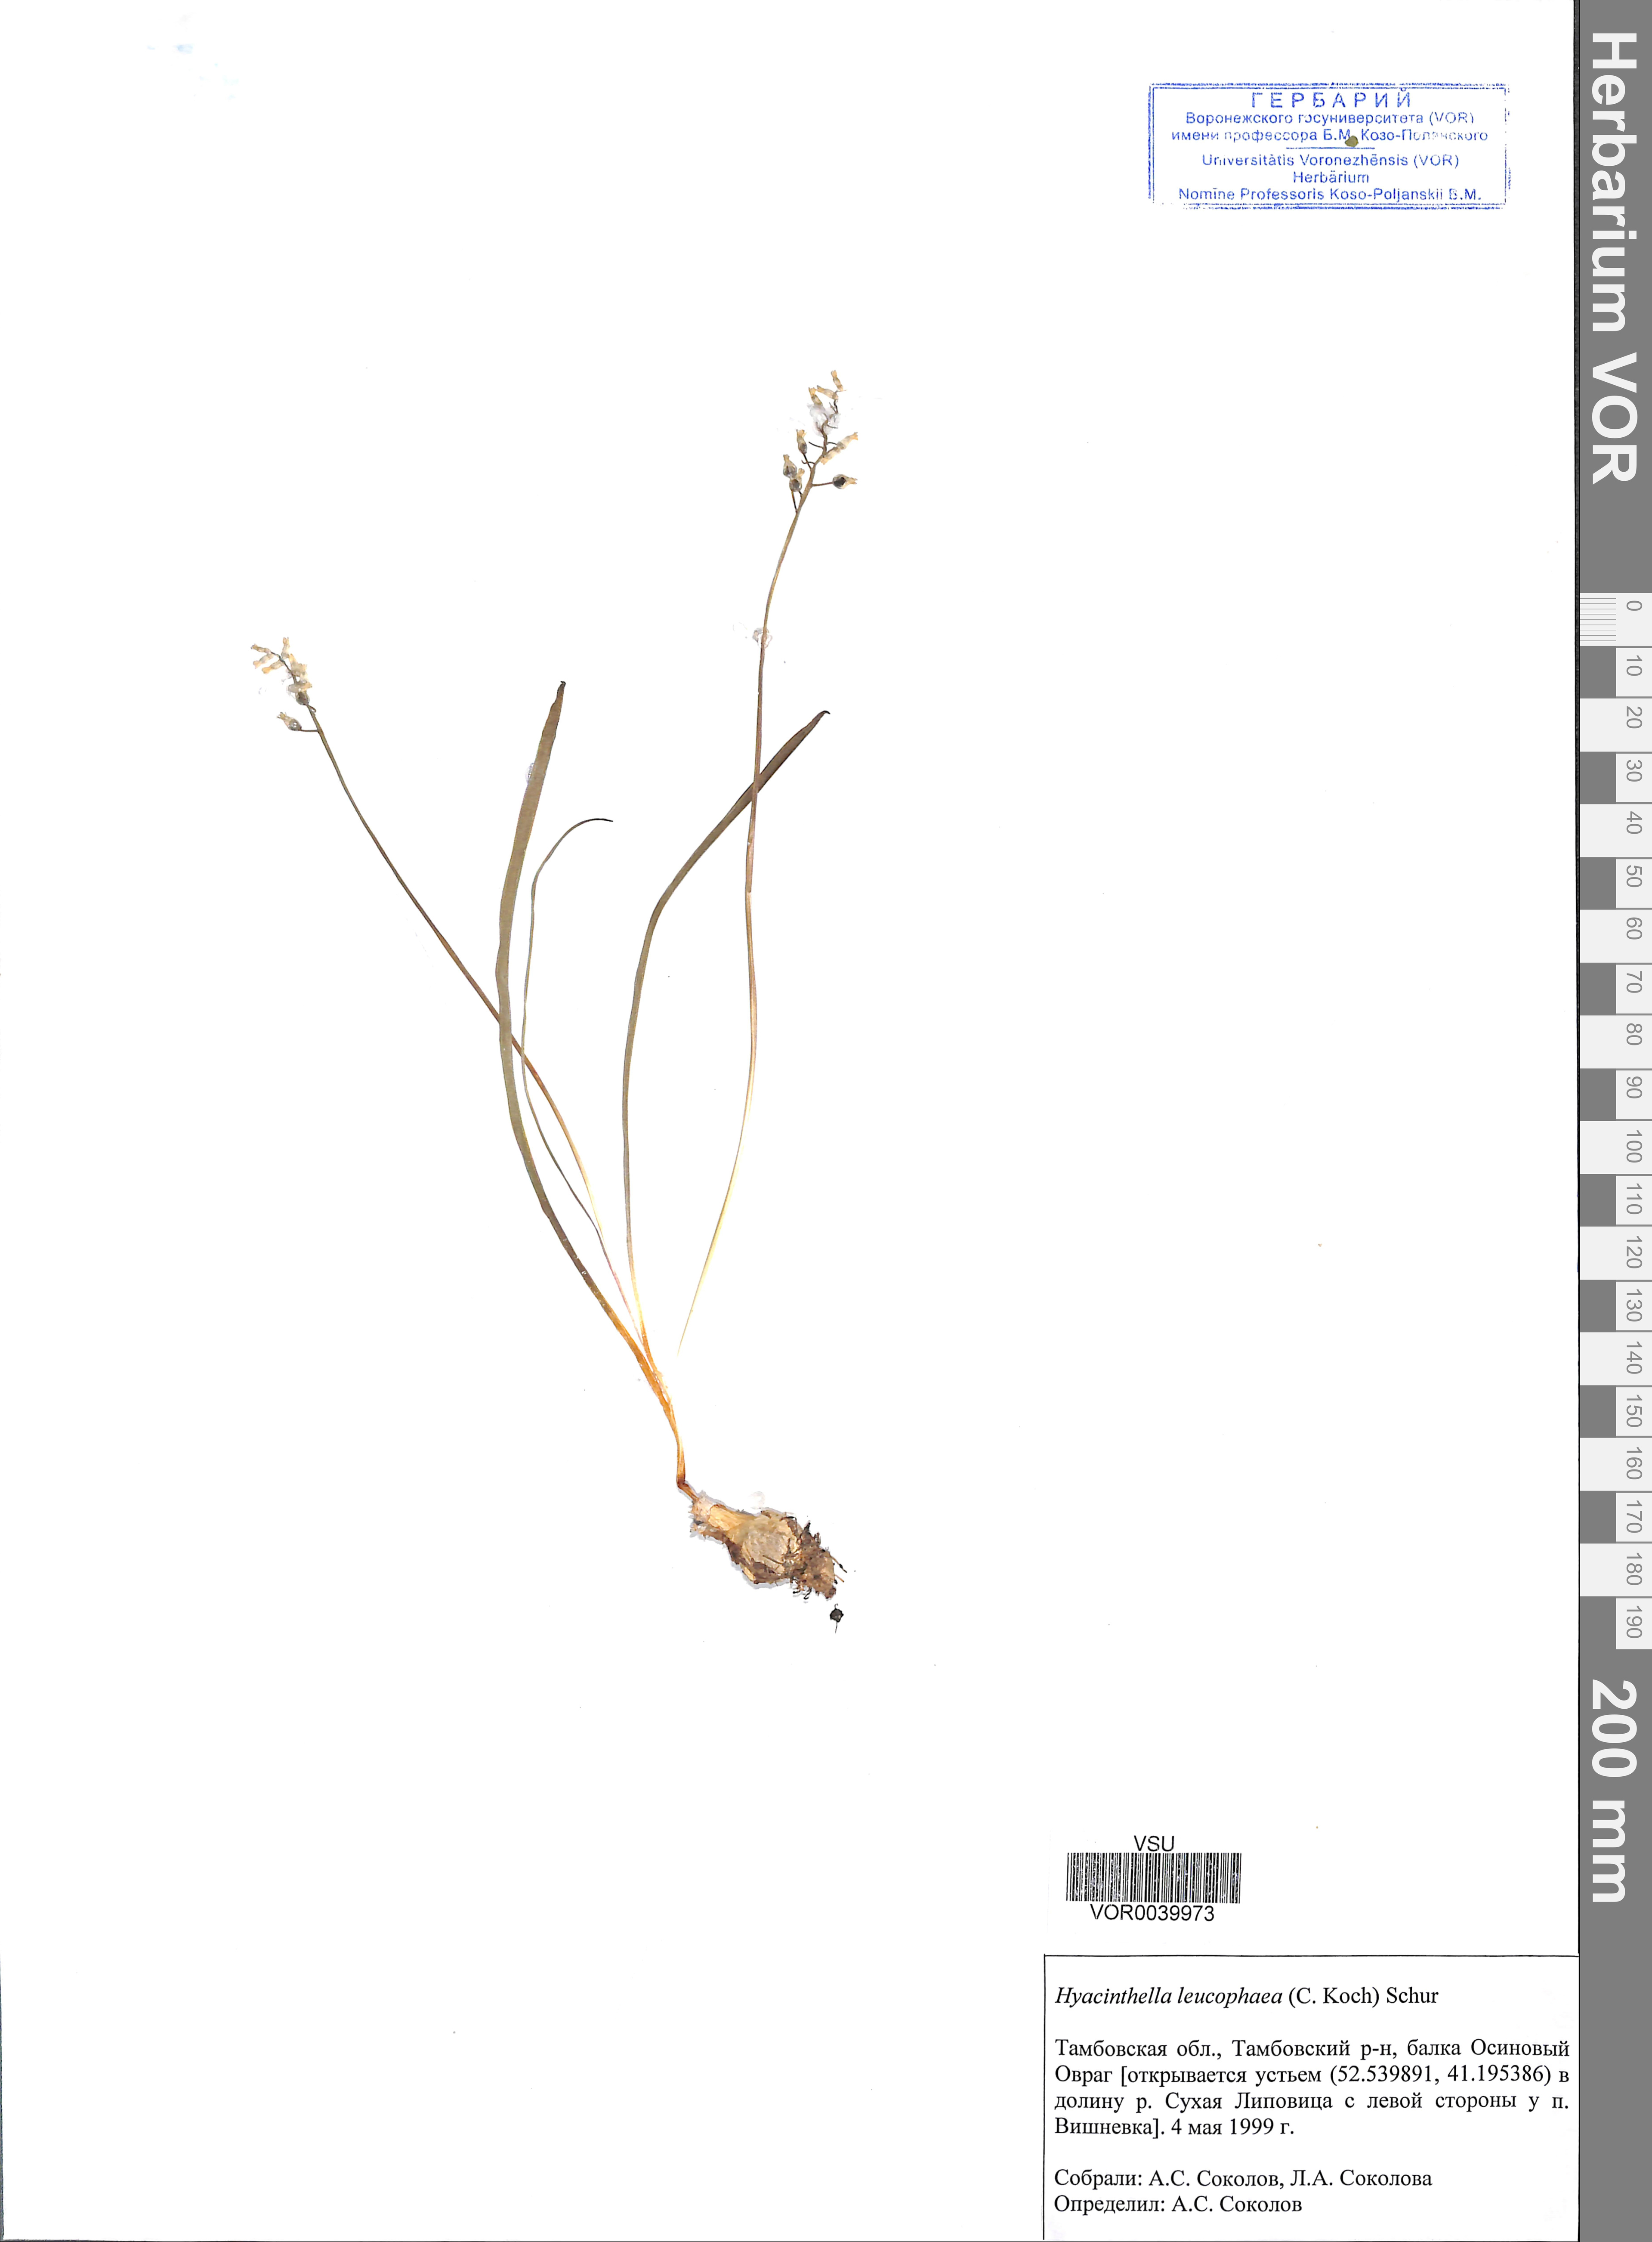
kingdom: Plantae
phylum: Tracheophyta
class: Liliopsida
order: Asparagales
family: Asparagaceae
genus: Hyacinthella
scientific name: Hyacinthella leucophaea
